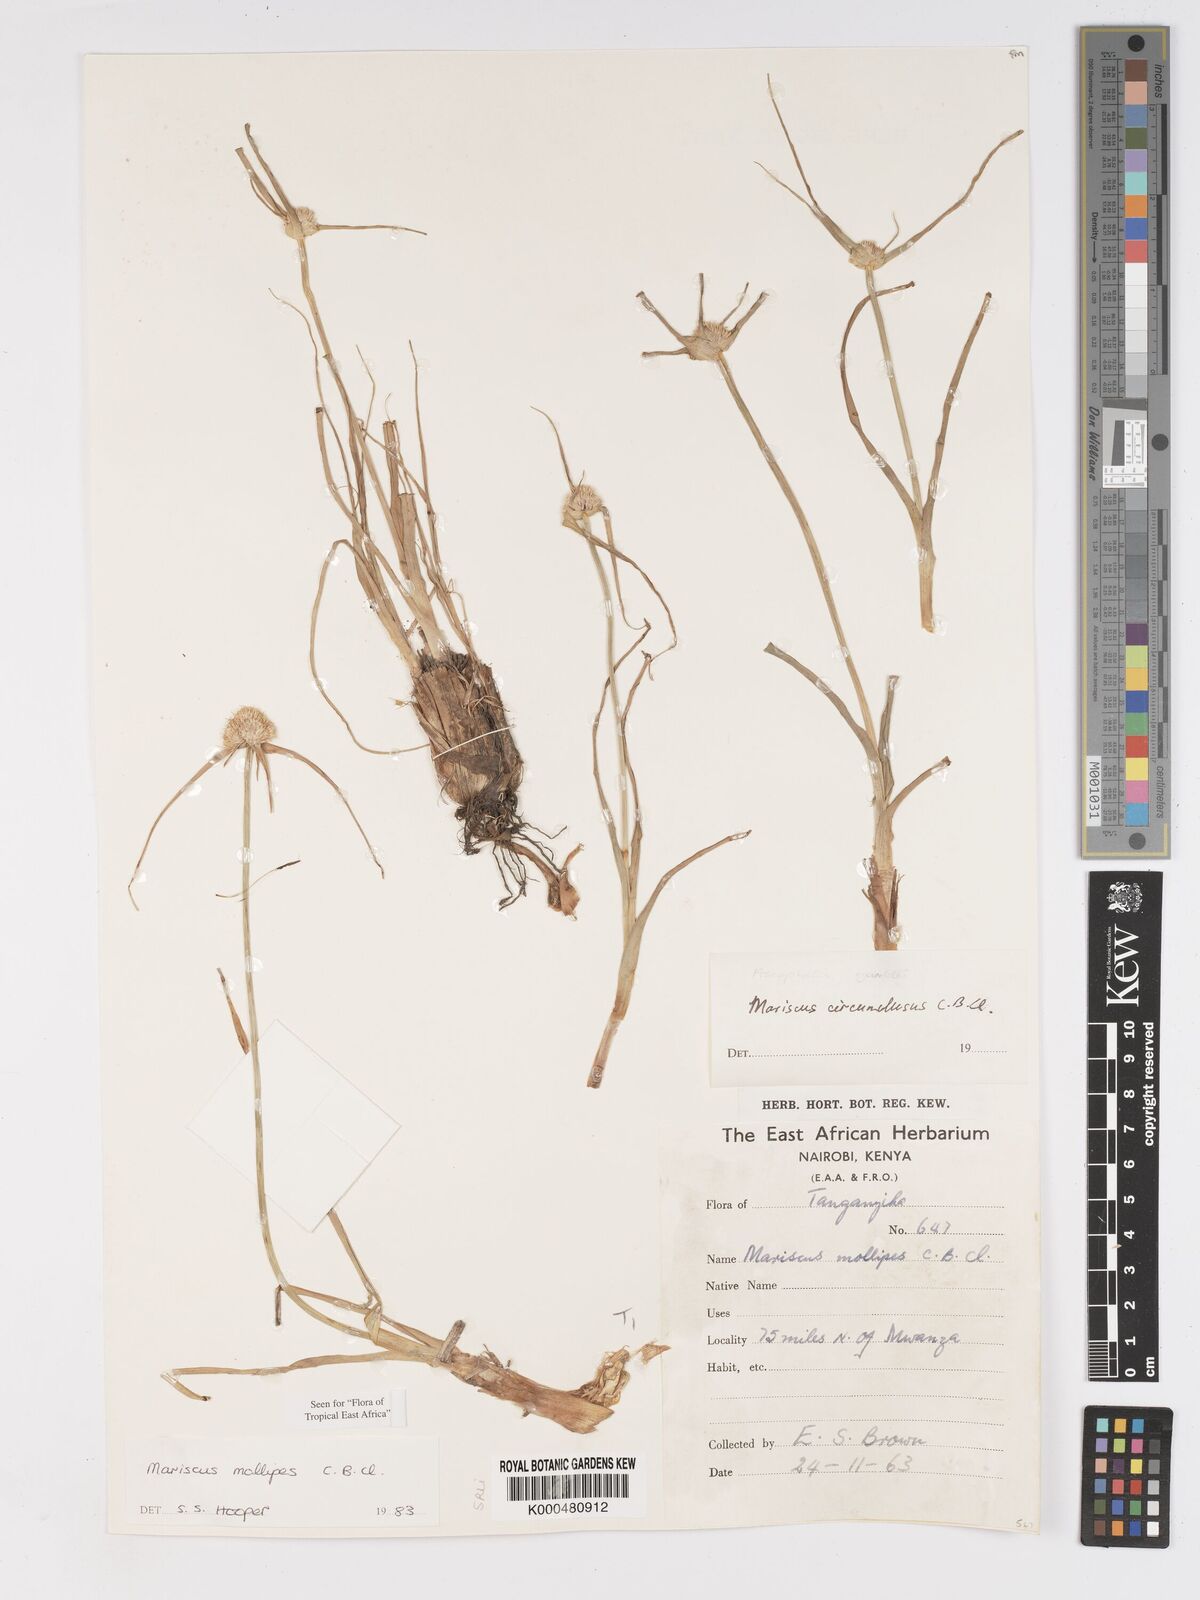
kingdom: Plantae
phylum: Tracheophyta
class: Liliopsida
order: Poales
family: Cyperaceae
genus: Cyperus
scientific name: Cyperus mollipes
